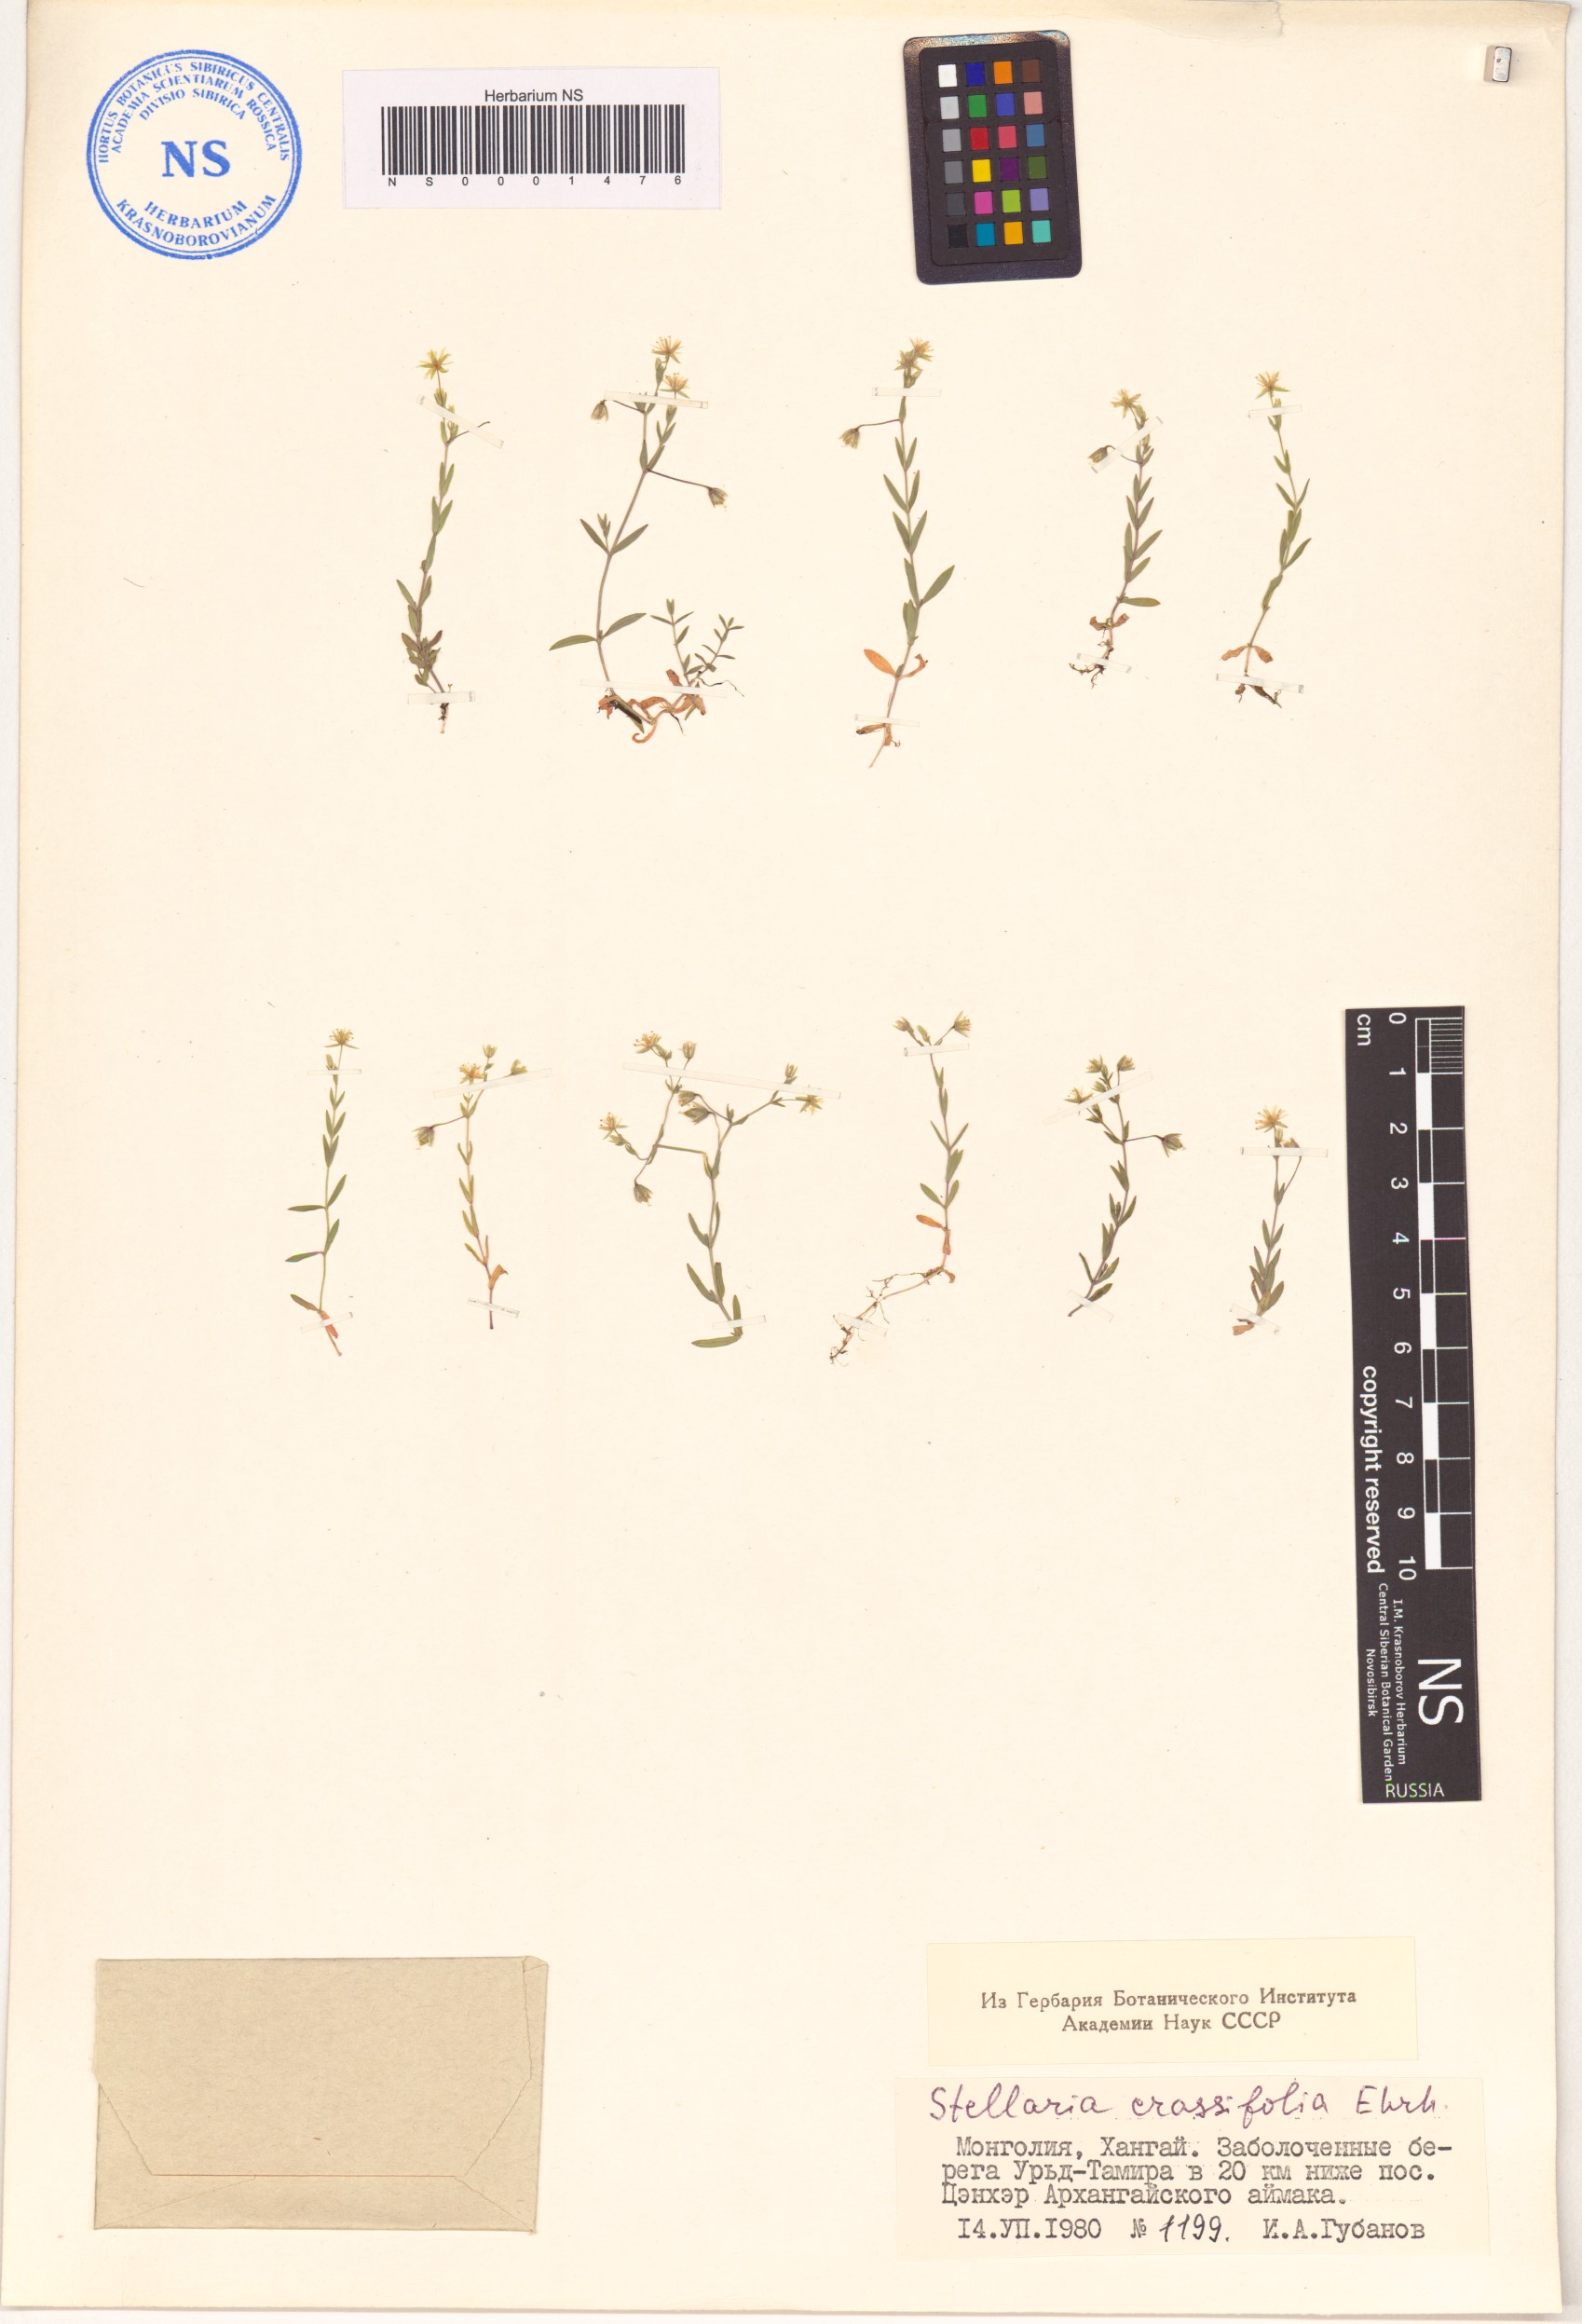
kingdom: Plantae
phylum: Tracheophyta
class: Magnoliopsida
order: Caryophyllales
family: Caryophyllaceae
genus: Stellaria
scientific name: Stellaria crassifolia
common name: Fleshy starwort
